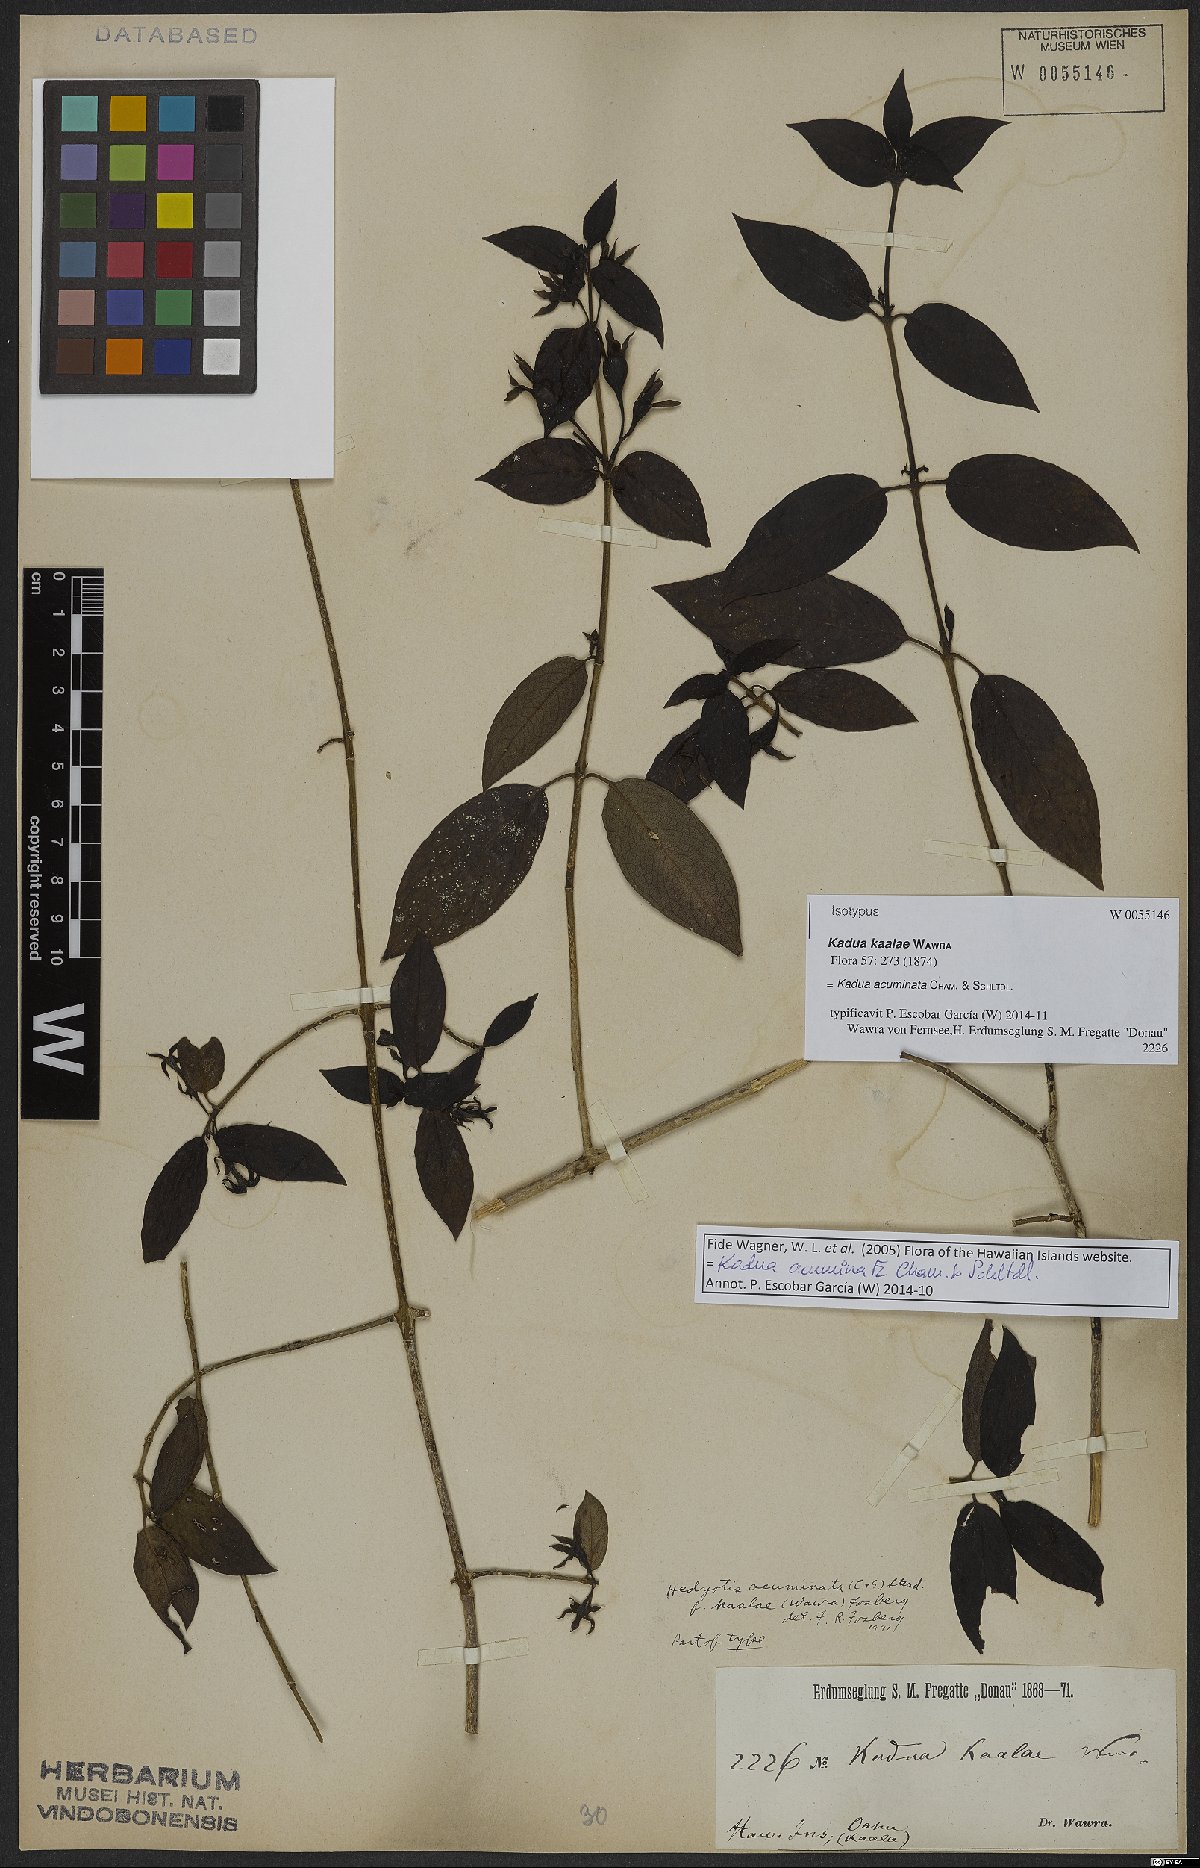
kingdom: Plantae
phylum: Tracheophyta
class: Magnoliopsida
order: Gentianales
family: Rubiaceae
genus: Kadua
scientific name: Kadua acuminata
